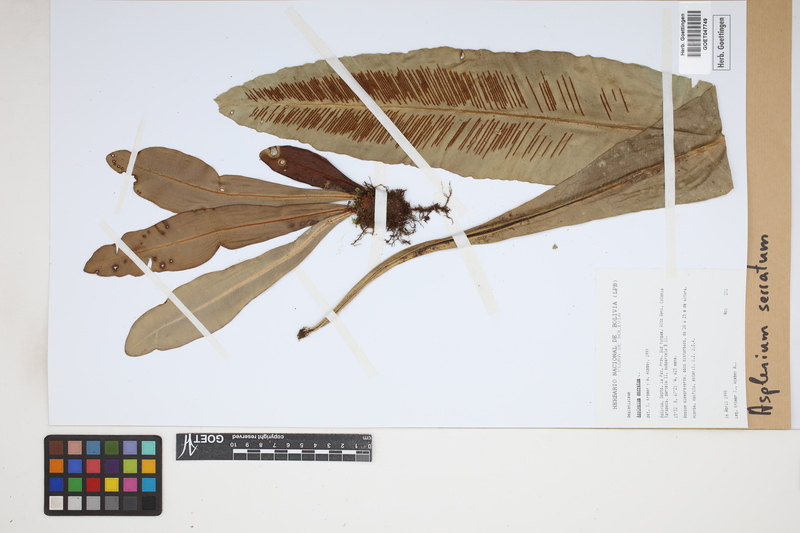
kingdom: Plantae
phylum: Tracheophyta
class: Polypodiopsida
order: Polypodiales
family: Aspleniaceae
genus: Asplenium
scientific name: Asplenium serratum
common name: Wild birdnest fern
